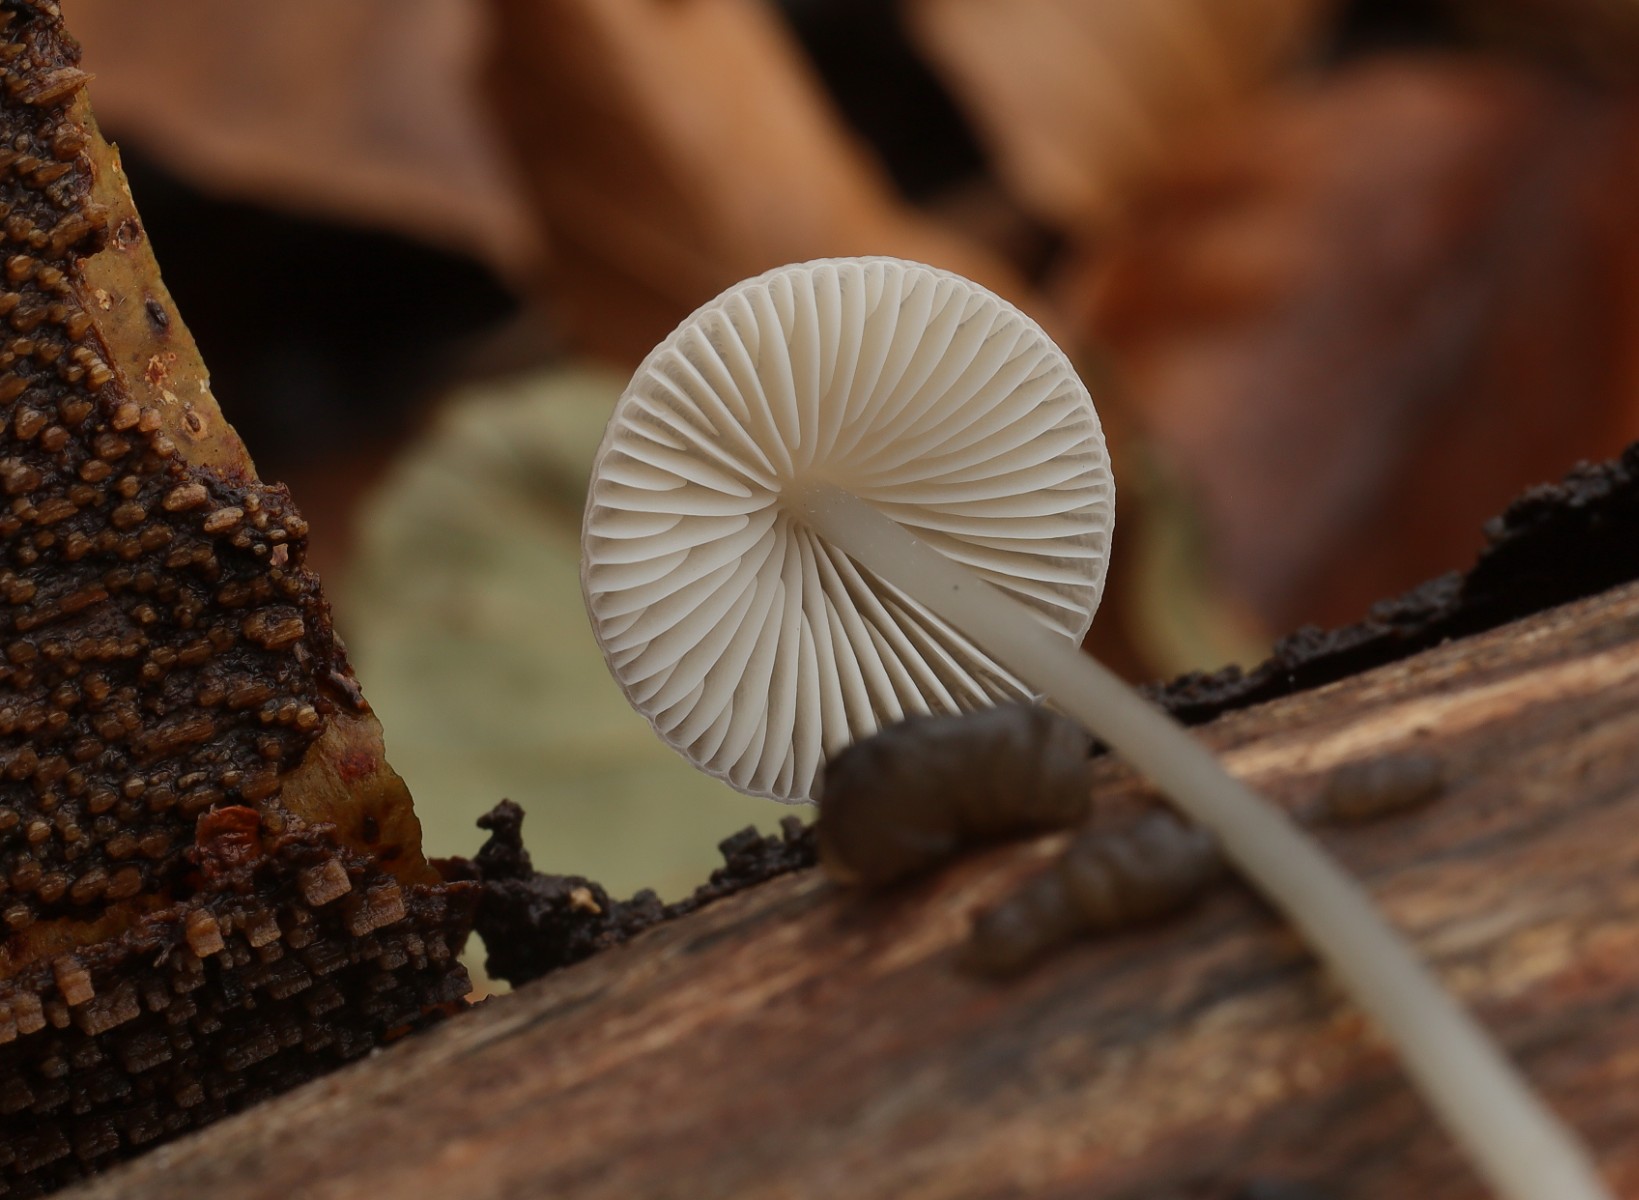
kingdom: Fungi
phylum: Basidiomycota
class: Agaricomycetes
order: Agaricales
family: Mycenaceae
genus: Mycena
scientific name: Mycena vitilis
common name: blankstokket huesvamp
